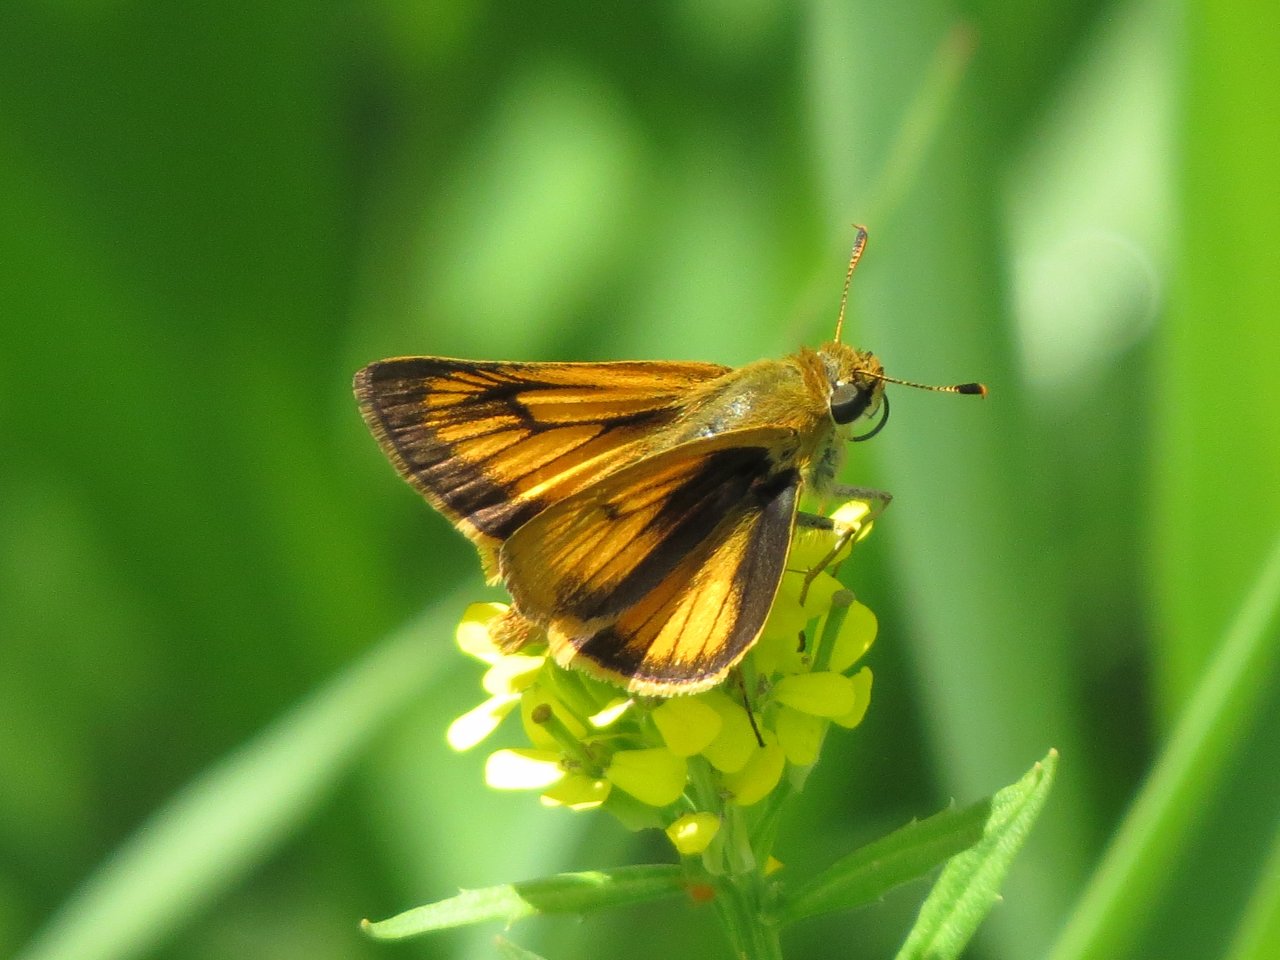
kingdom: Animalia
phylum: Arthropoda
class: Insecta
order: Lepidoptera
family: Hesperiidae
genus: Atrytone
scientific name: Atrytone delaware
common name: Delaware Skipper
